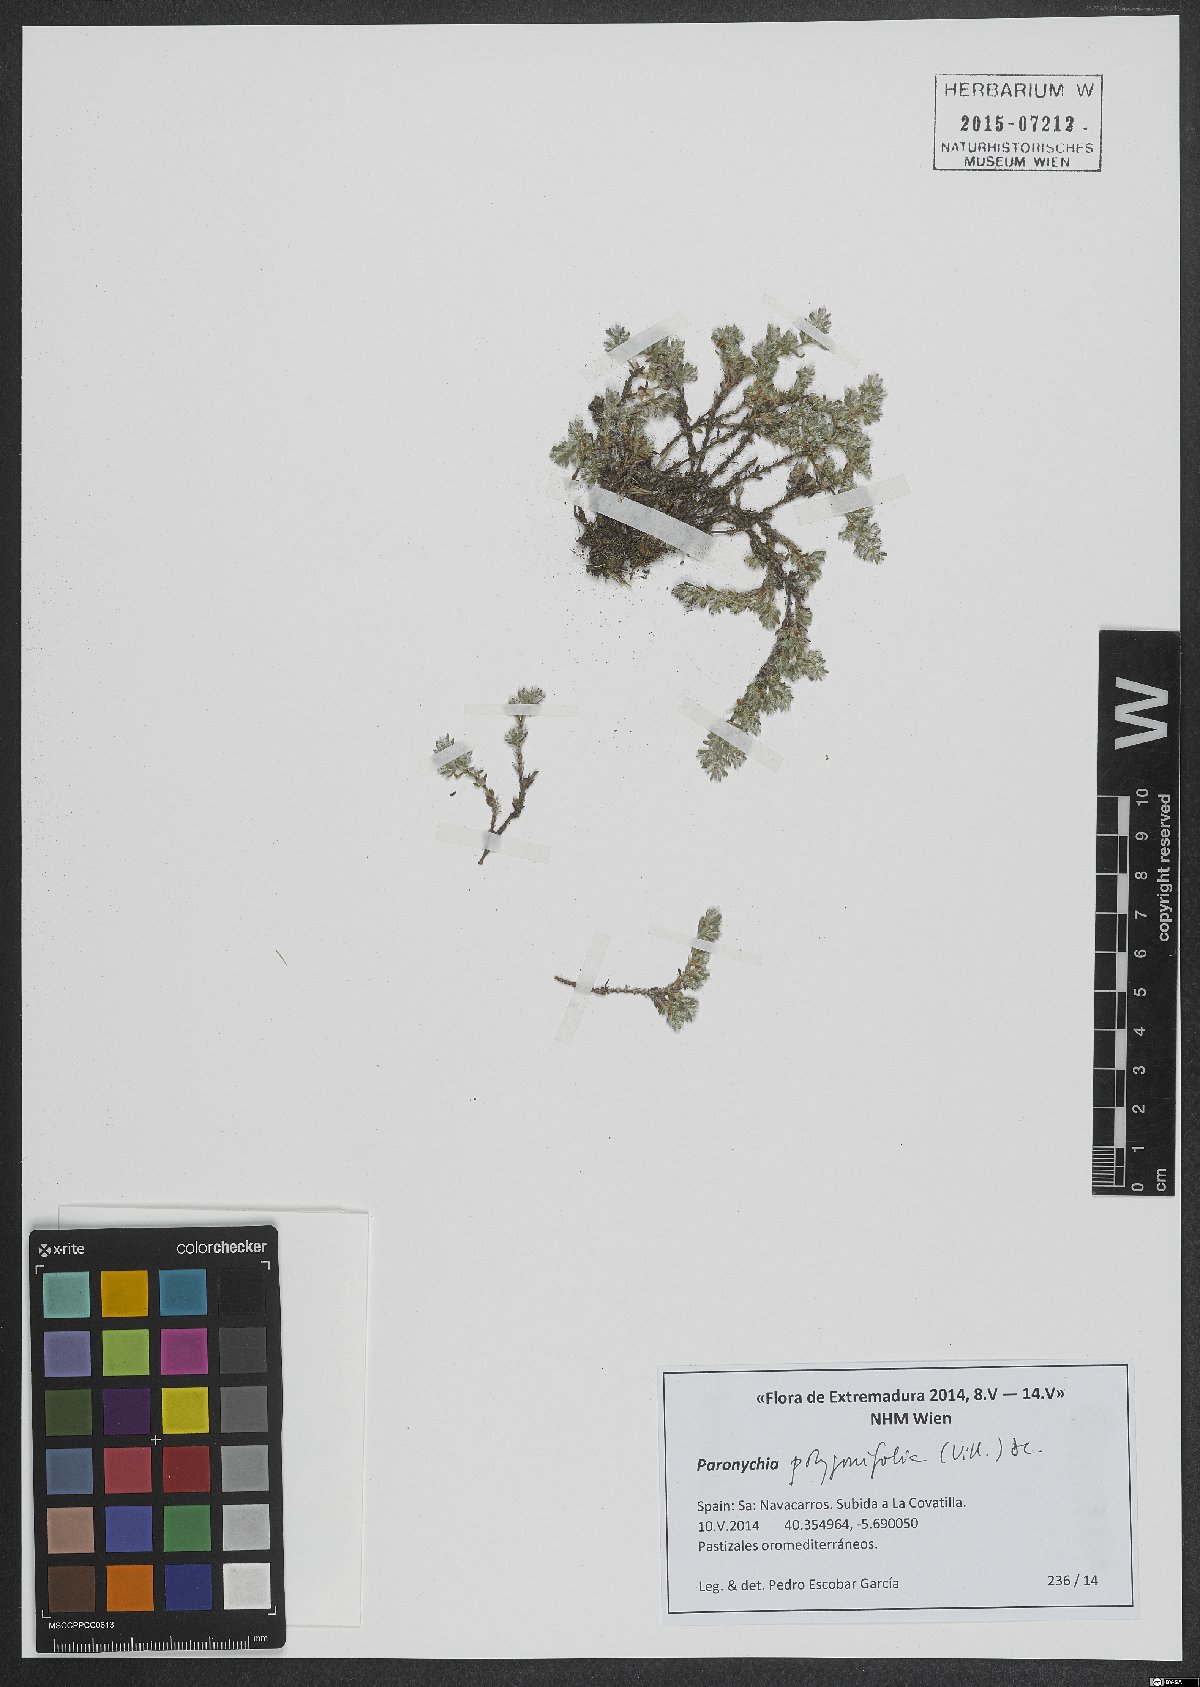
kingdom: Plantae
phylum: Tracheophyta
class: Magnoliopsida
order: Caryophyllales
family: Caryophyllaceae
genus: Paronychia
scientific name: Paronychia polygonifolia
